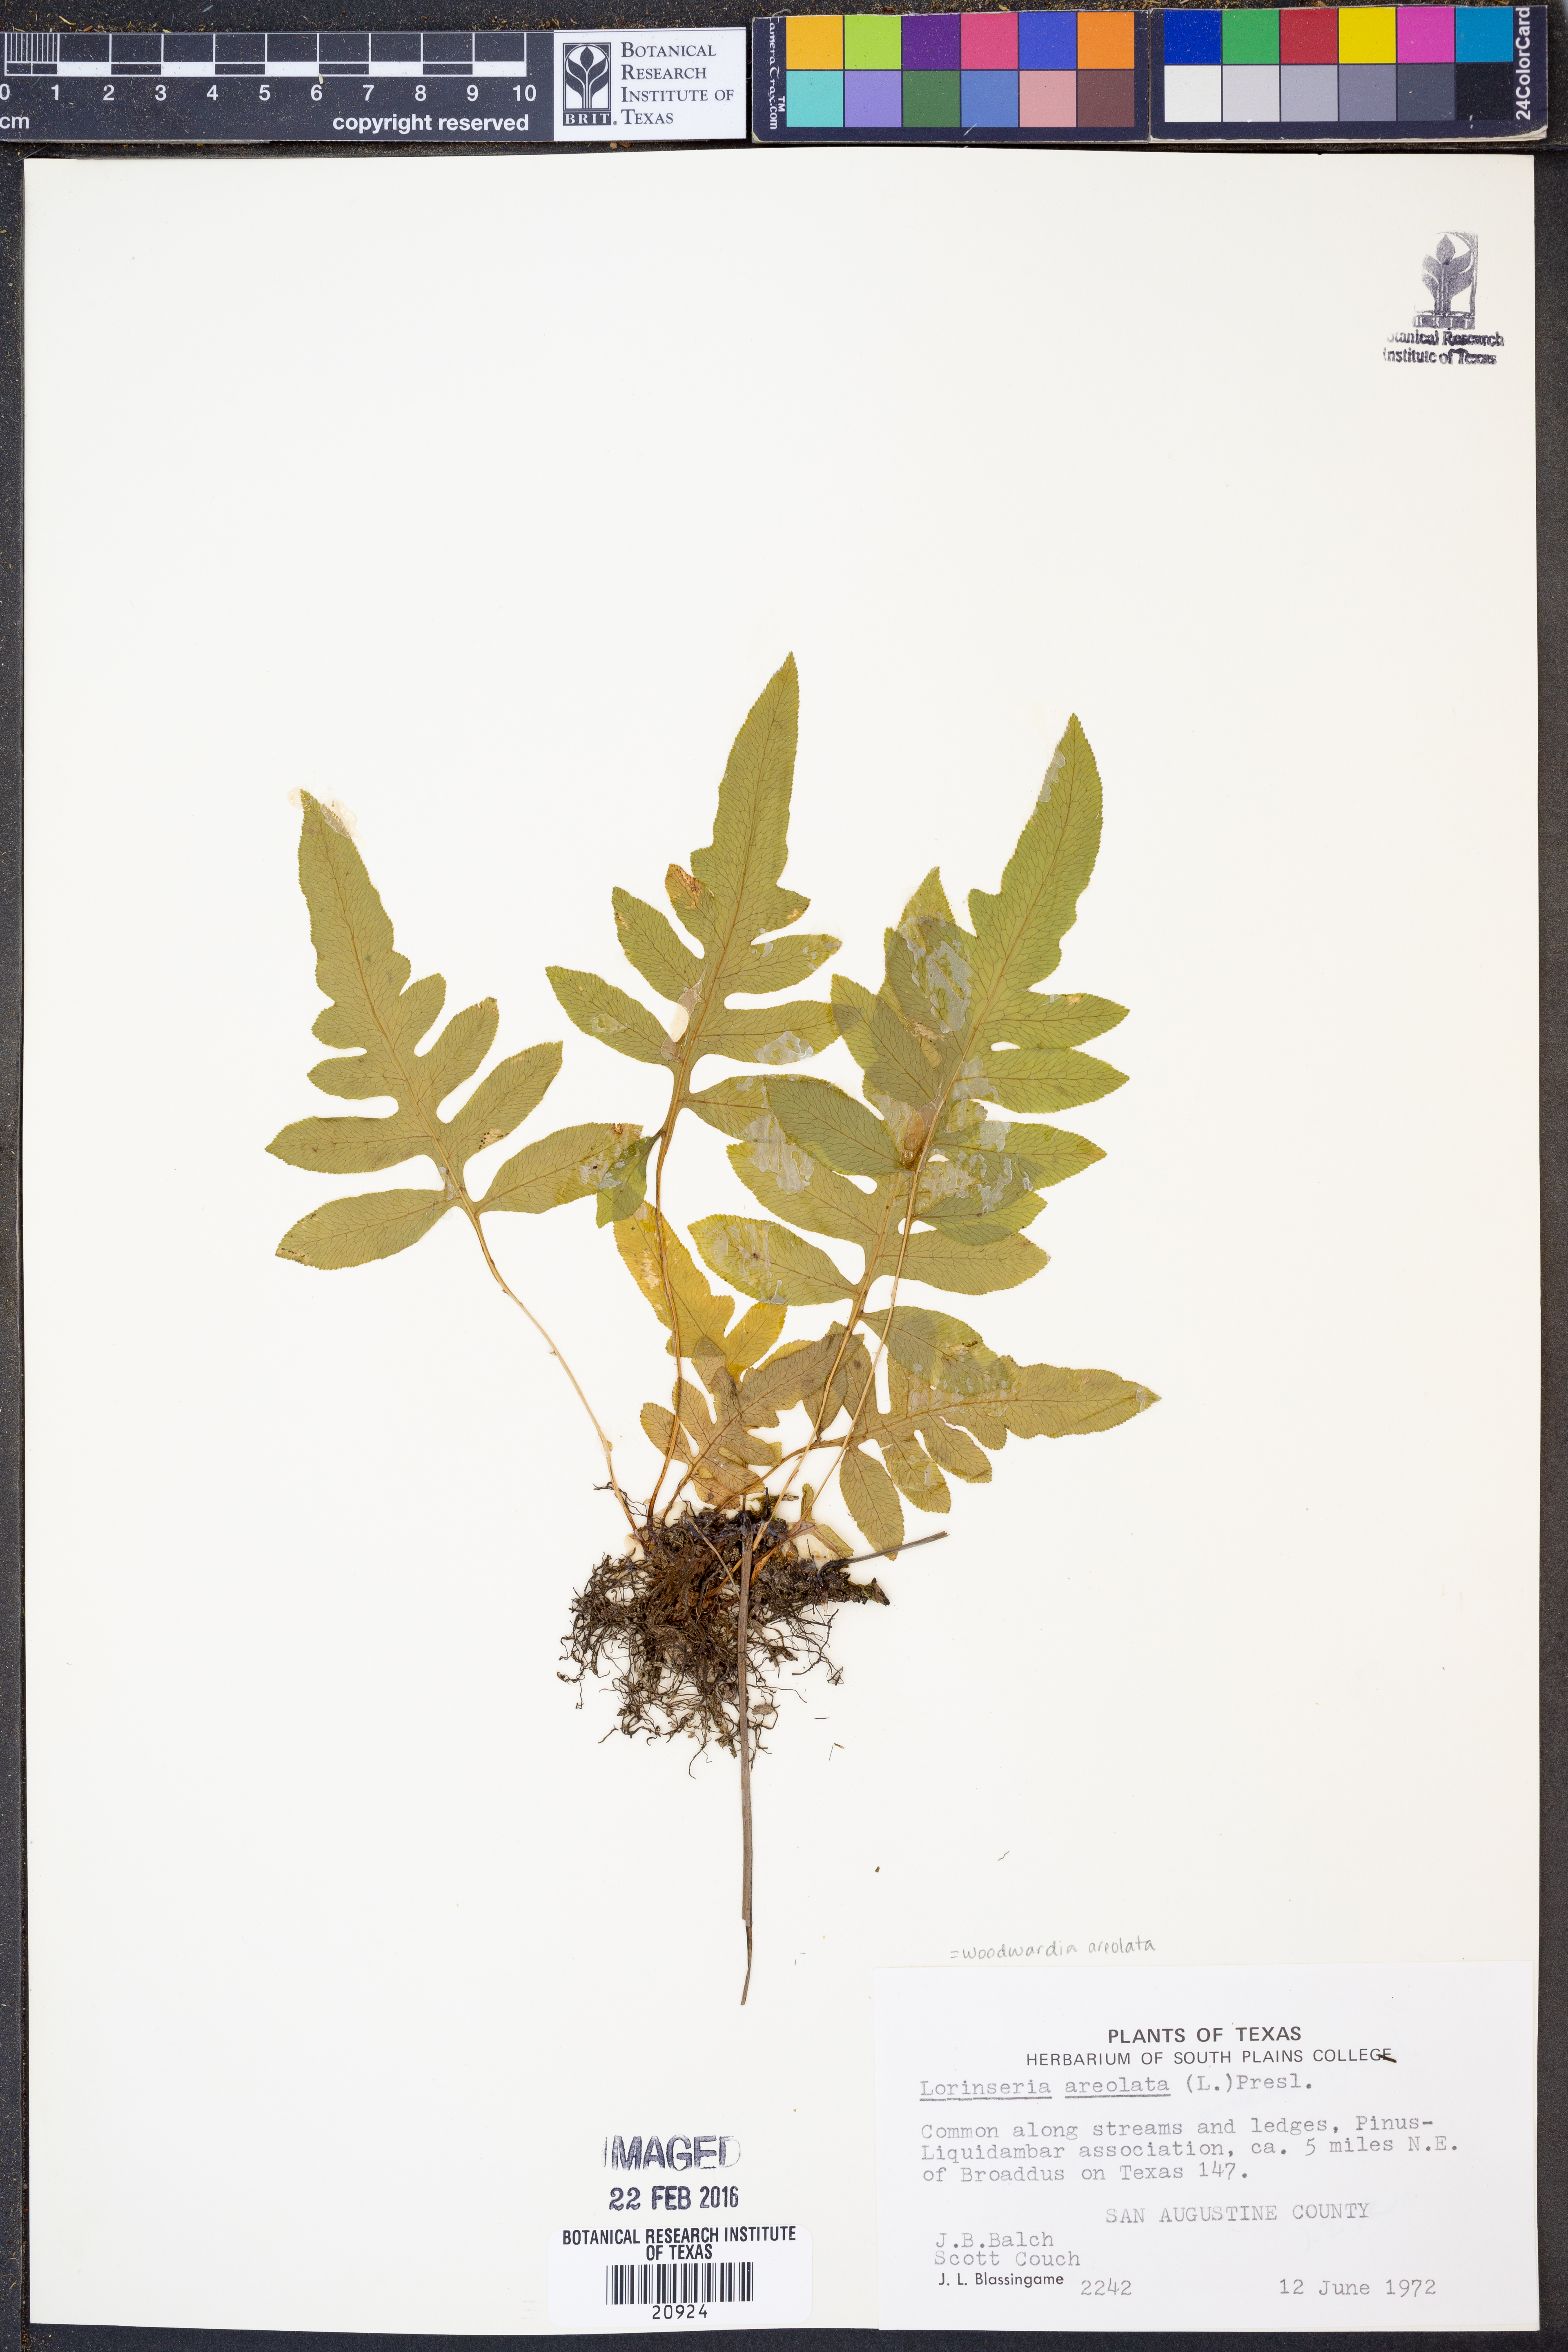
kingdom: Plantae
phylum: Tracheophyta
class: Polypodiopsida
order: Polypodiales
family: Blechnaceae
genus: Lorinseria
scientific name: Lorinseria areolata
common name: Dwarf chain fern
